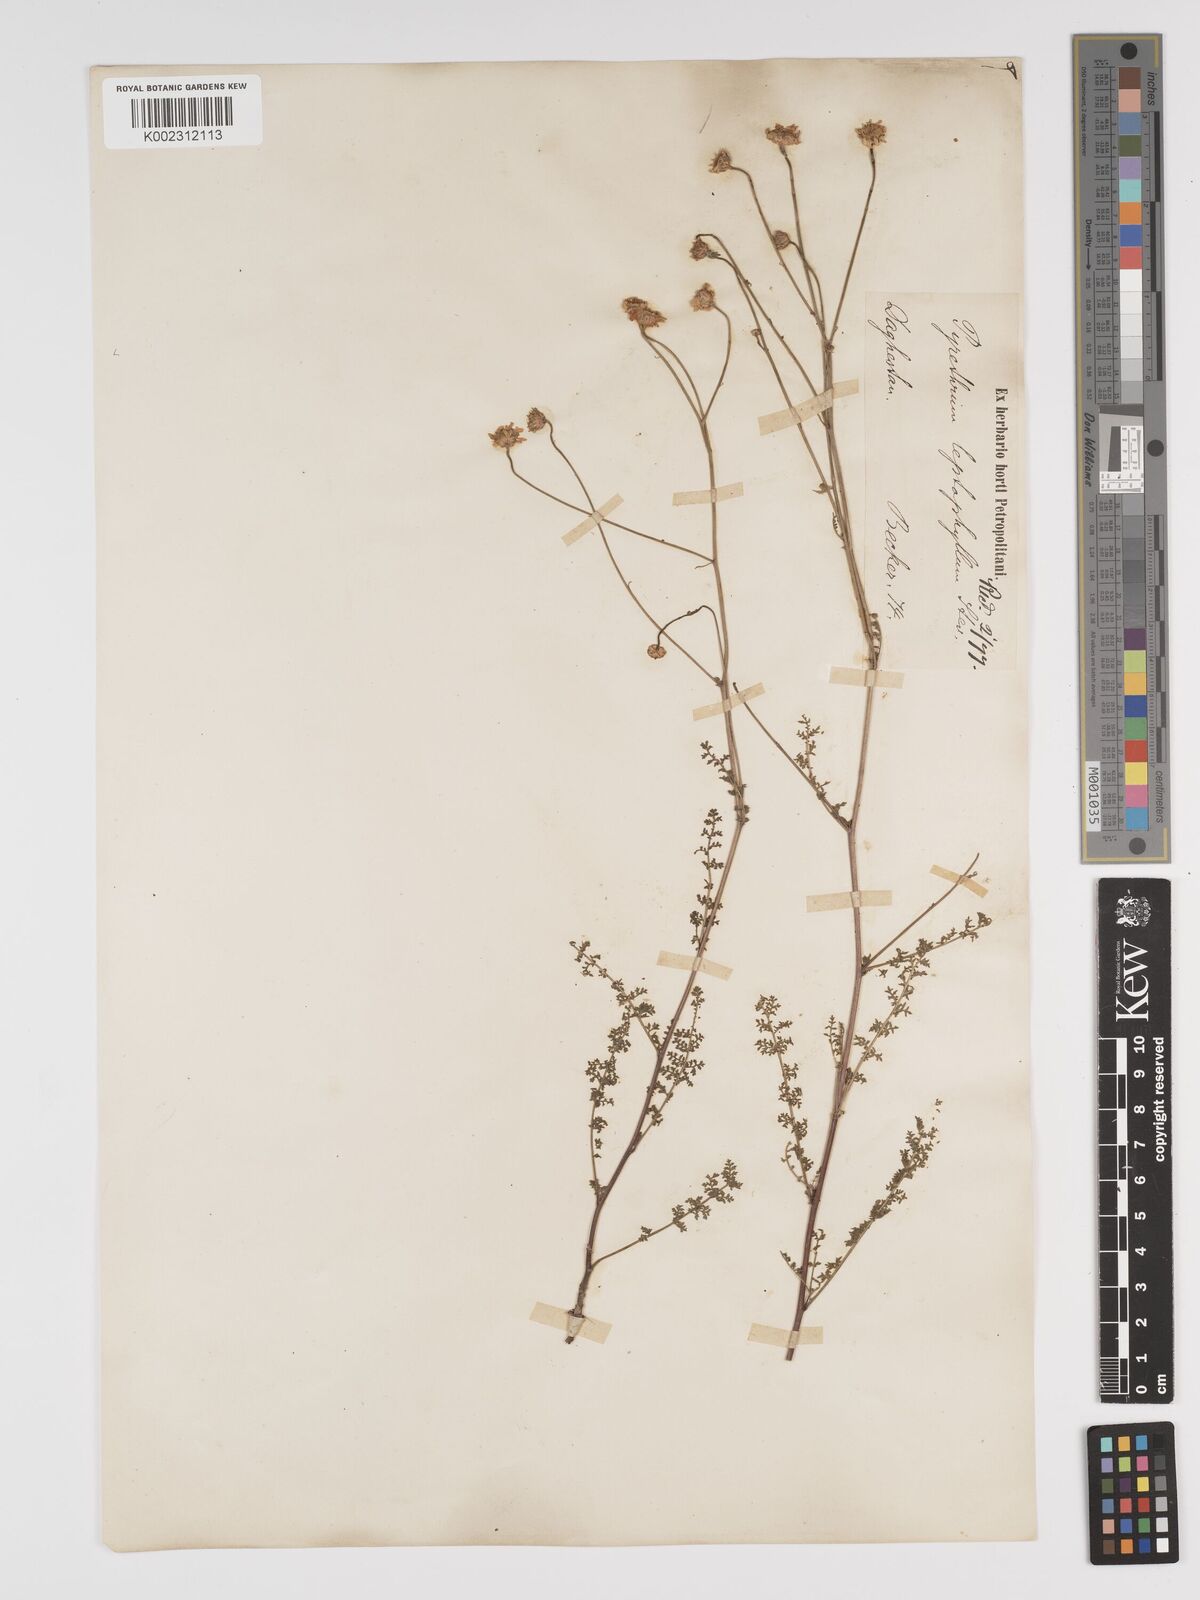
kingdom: Plantae
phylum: Tracheophyta
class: Magnoliopsida
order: Asterales
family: Asteraceae
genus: Tanacetum
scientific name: Tanacetum leptophyllum
